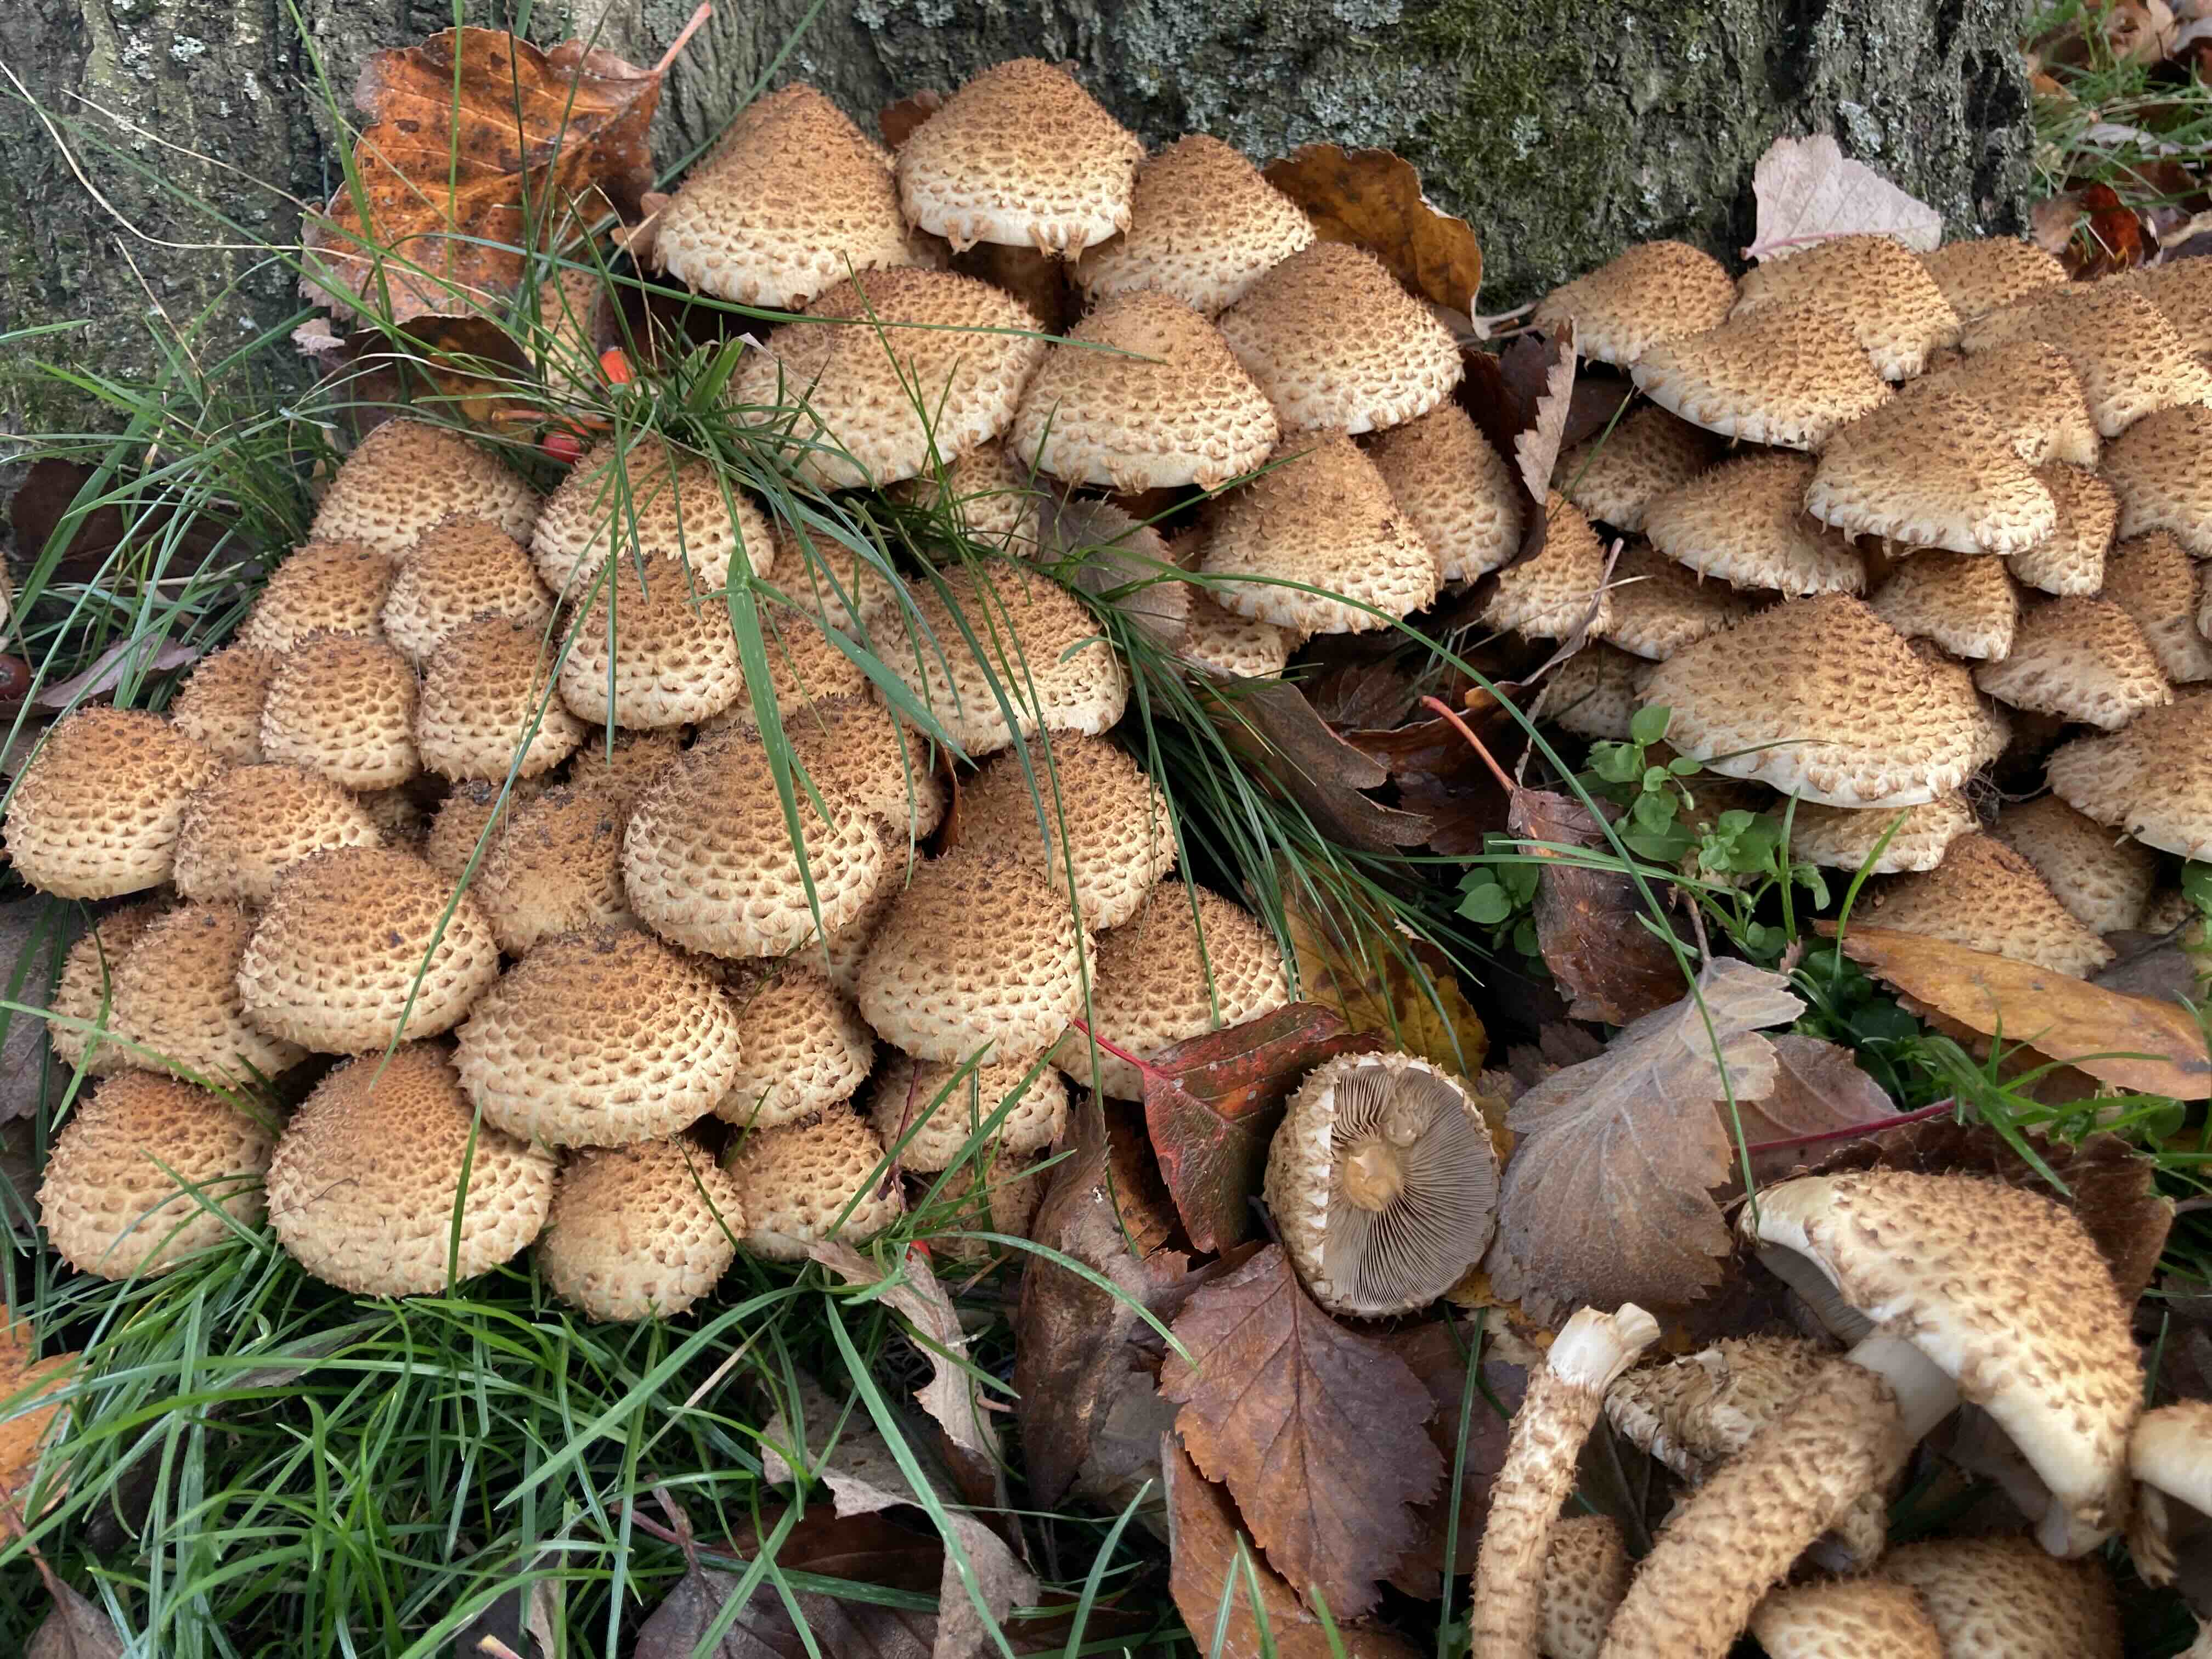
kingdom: Fungi
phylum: Basidiomycota
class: Agaricomycetes
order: Agaricales
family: Strophariaceae
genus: Pholiota
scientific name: Pholiota squarrosa
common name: krumskællet skælhat
